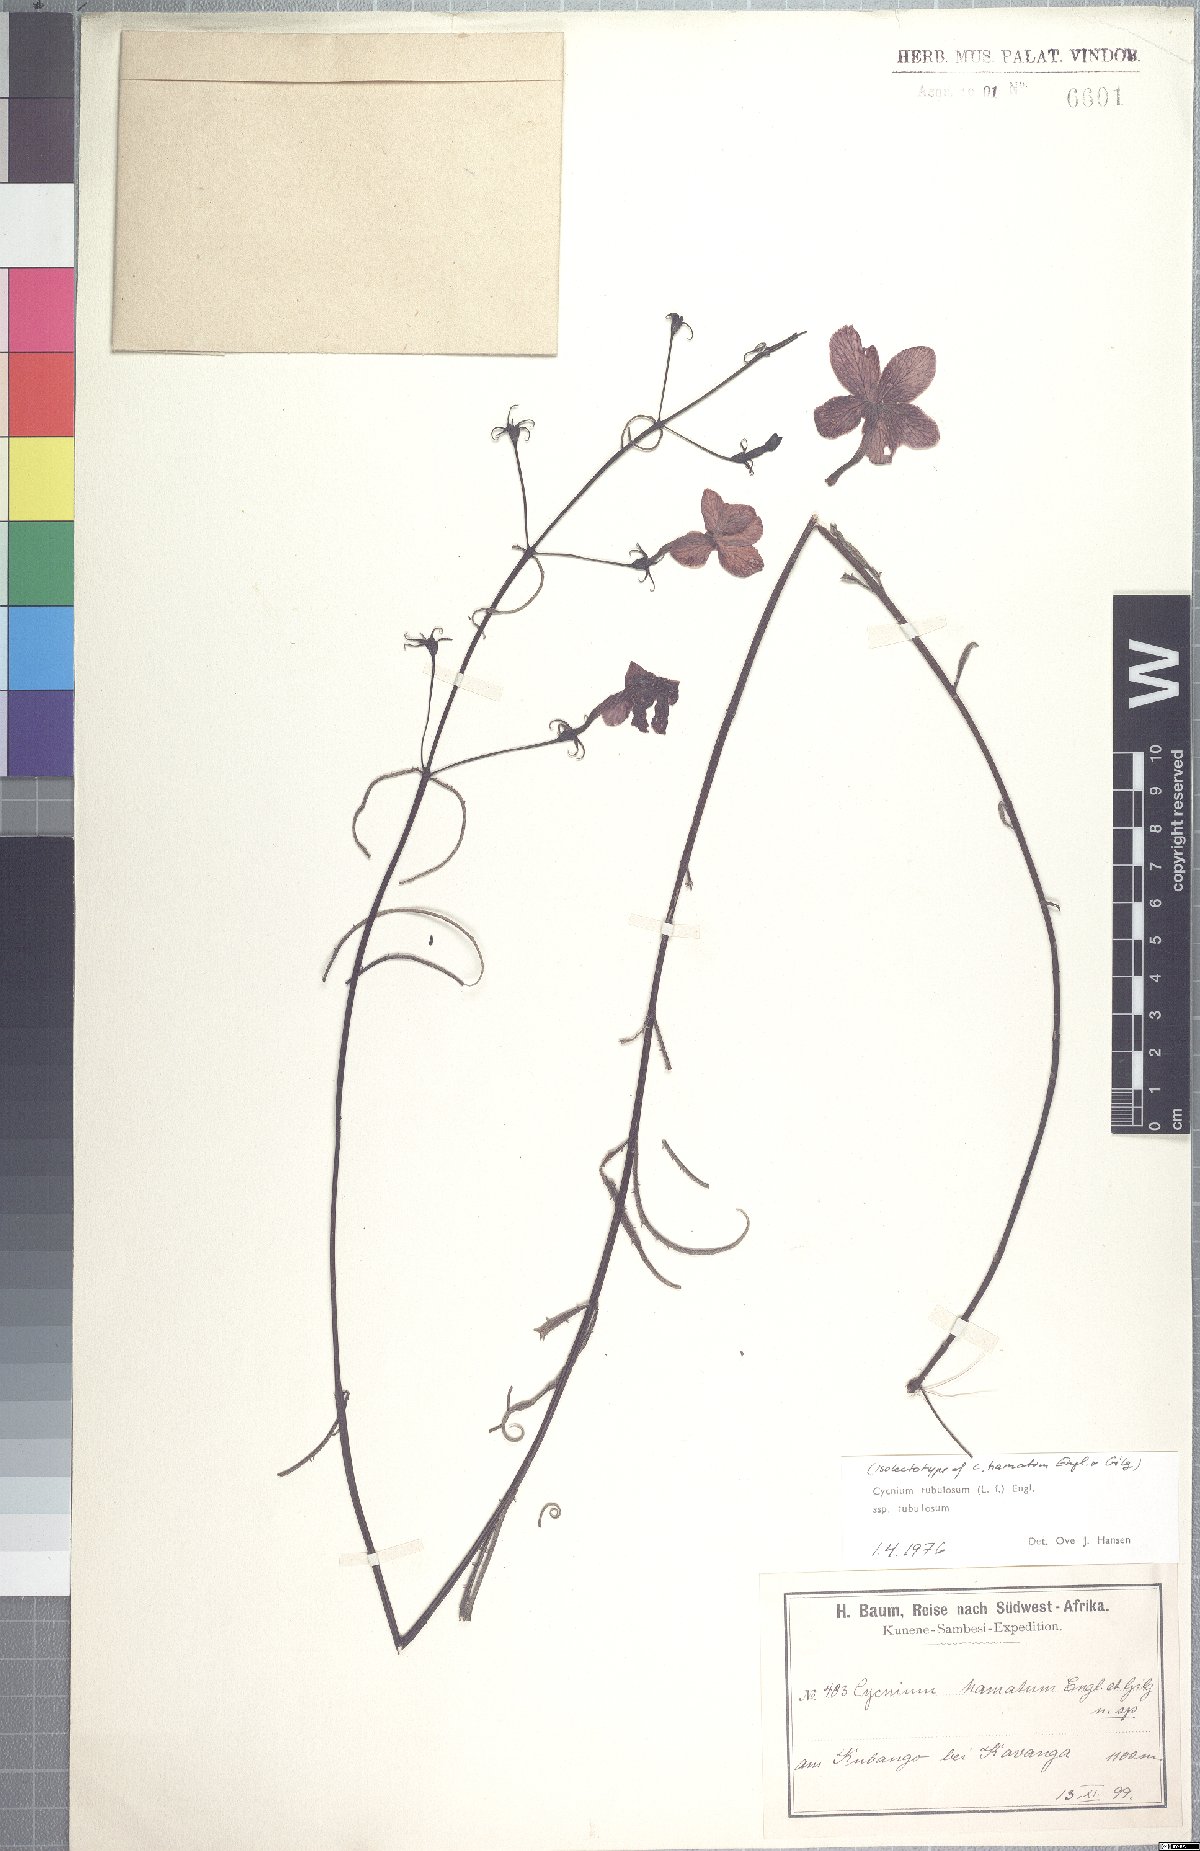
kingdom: Plantae
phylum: Tracheophyta
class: Magnoliopsida
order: Lamiales
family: Orobanchaceae
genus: Cycnium
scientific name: Cycnium tubulosum
